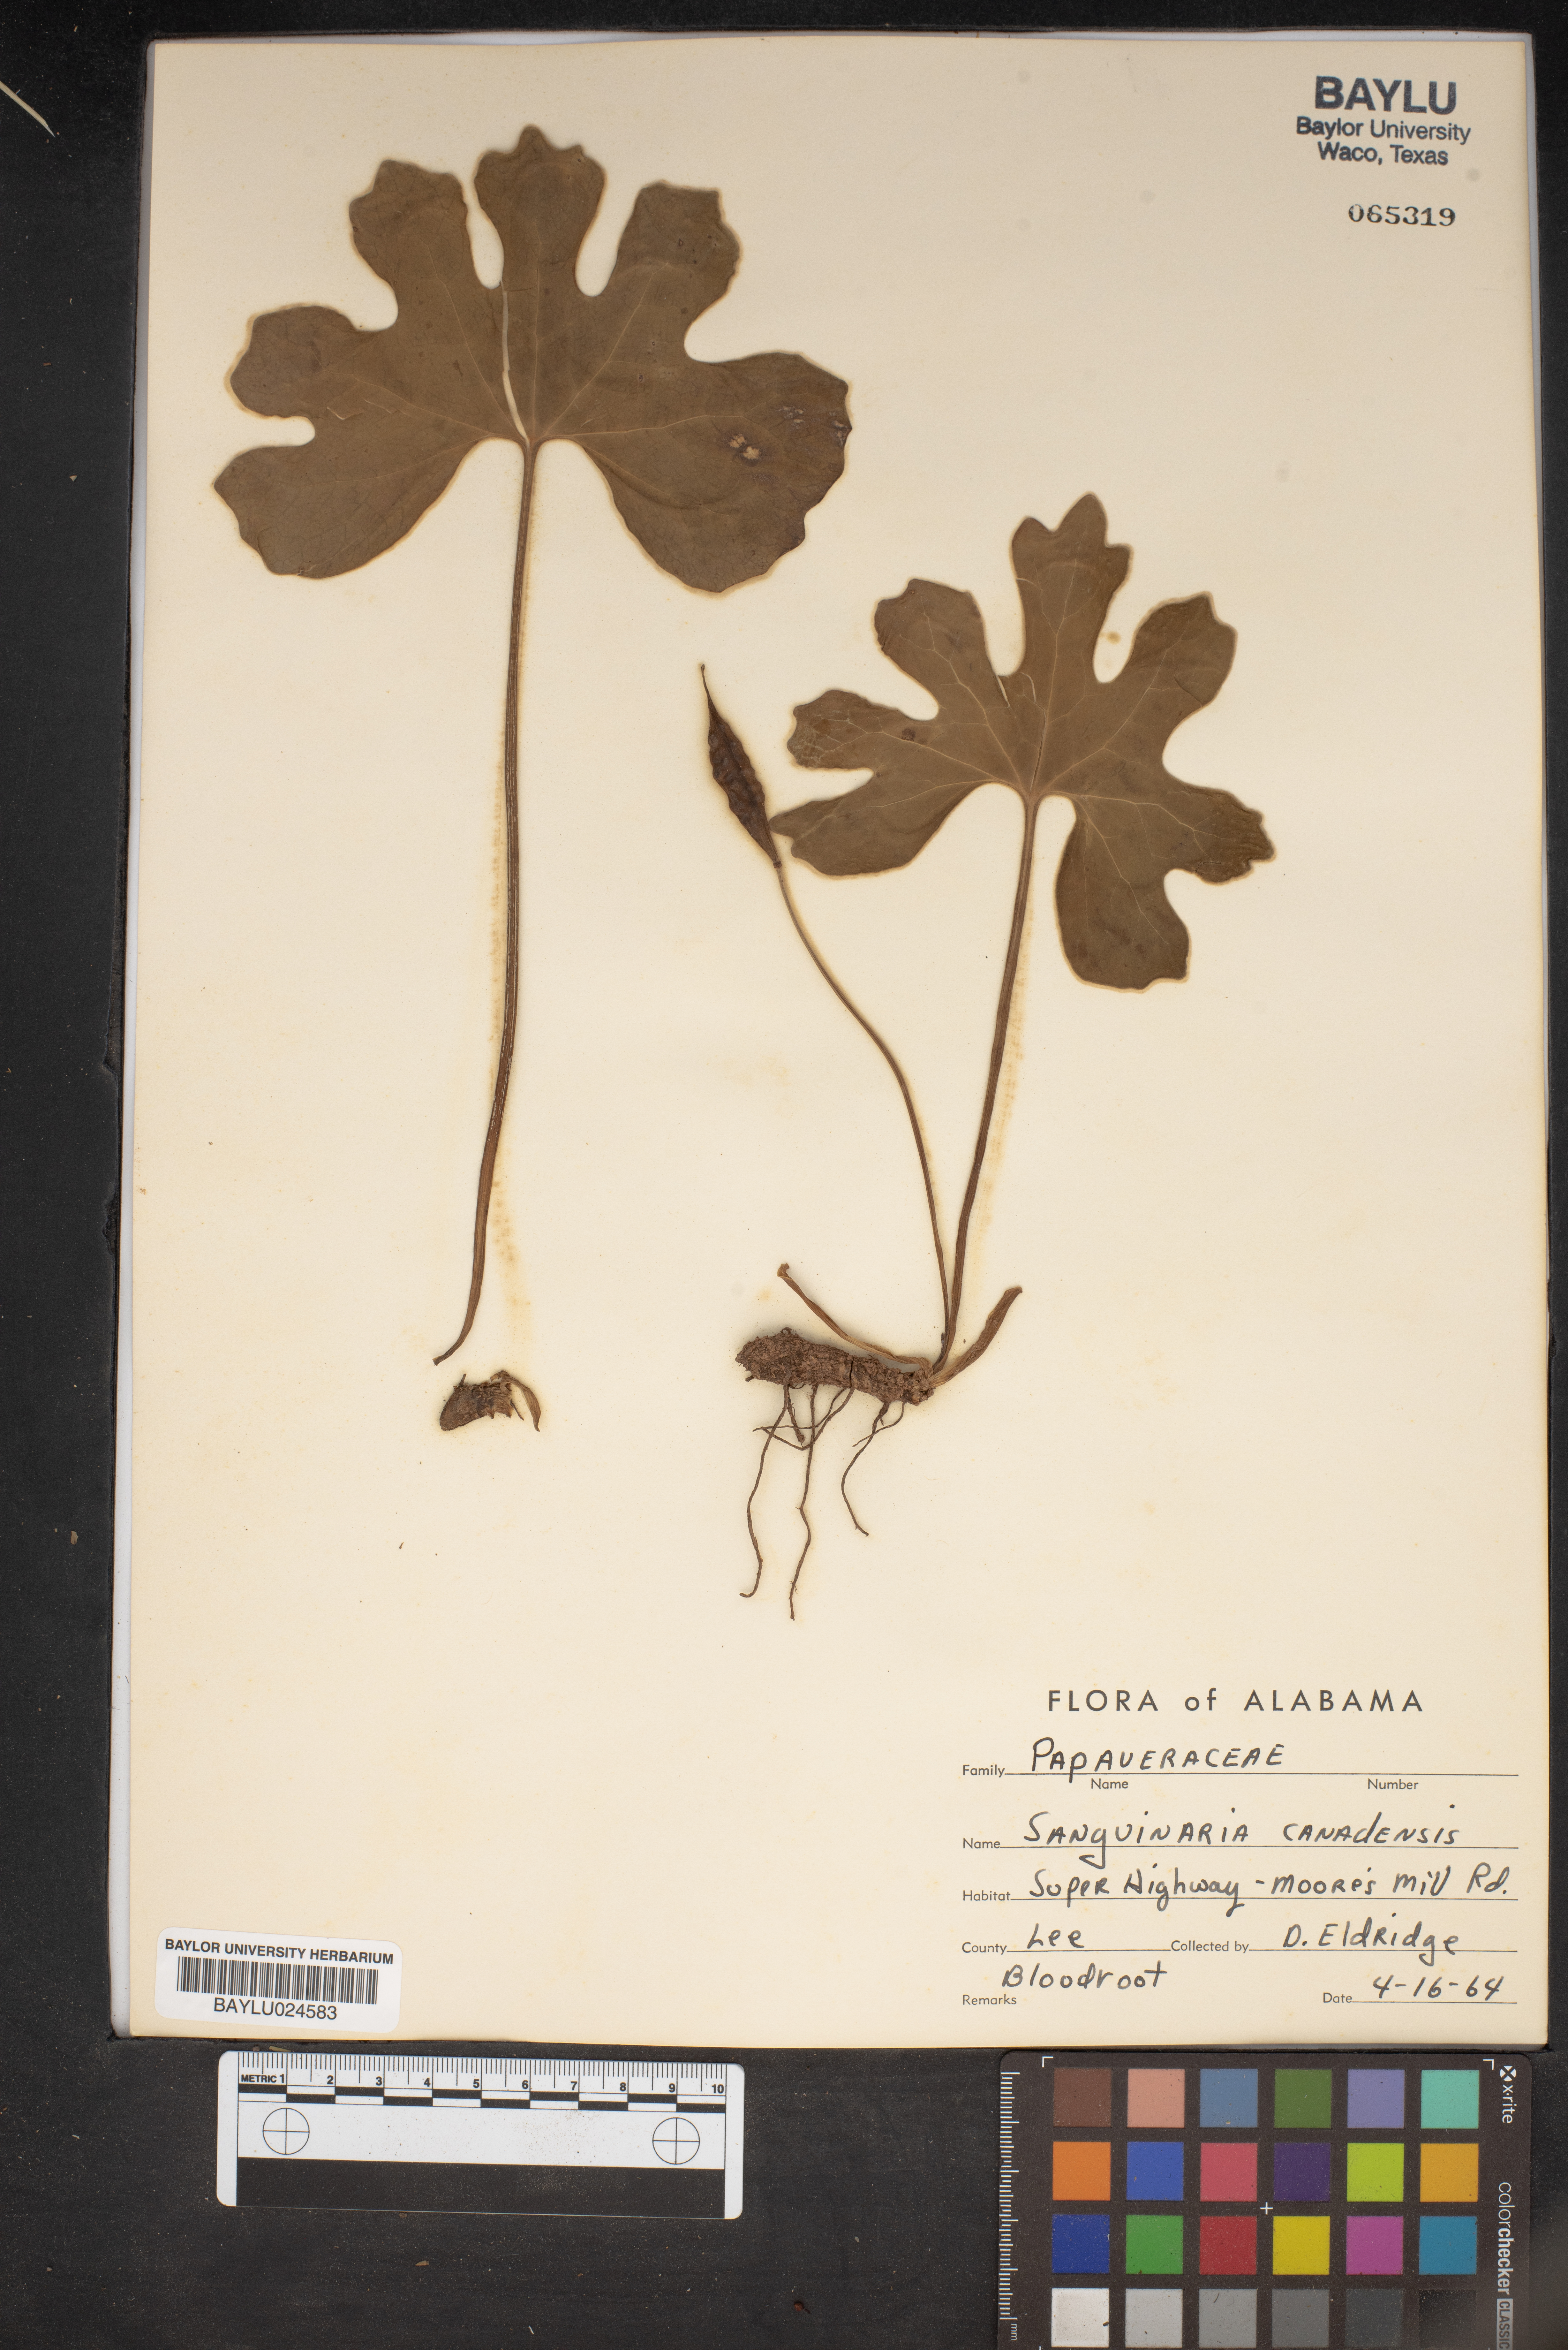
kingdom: Plantae
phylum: Tracheophyta
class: Magnoliopsida
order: Ranunculales
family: Papaveraceae
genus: Sanguinaria
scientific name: Sanguinaria canadensis
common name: Bloodroot
